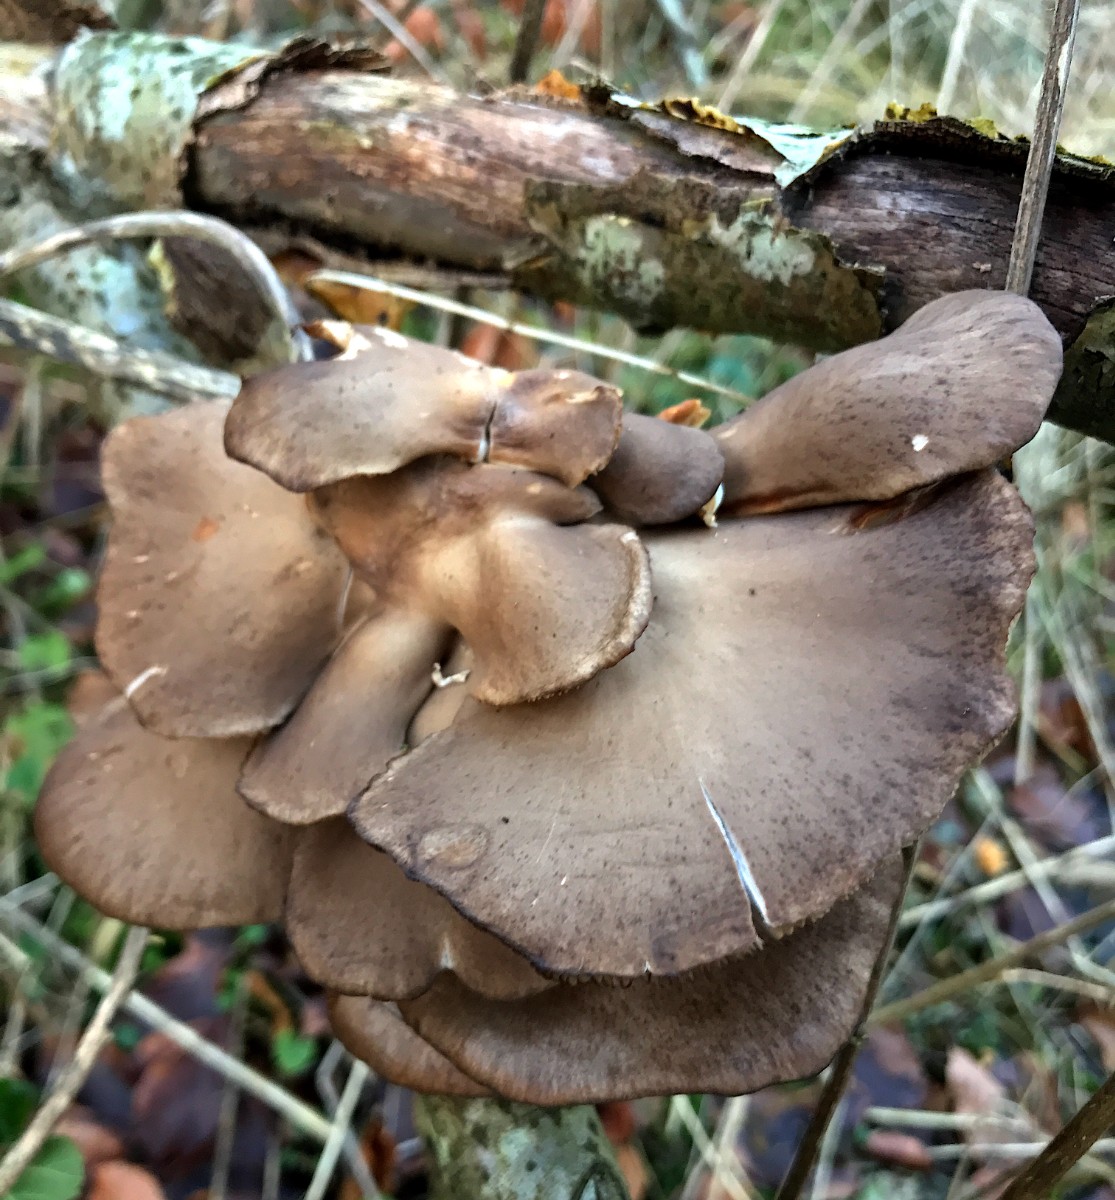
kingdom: Fungi
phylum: Basidiomycota
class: Agaricomycetes
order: Agaricales
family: Pleurotaceae
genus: Pleurotus
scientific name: Pleurotus ostreatus
